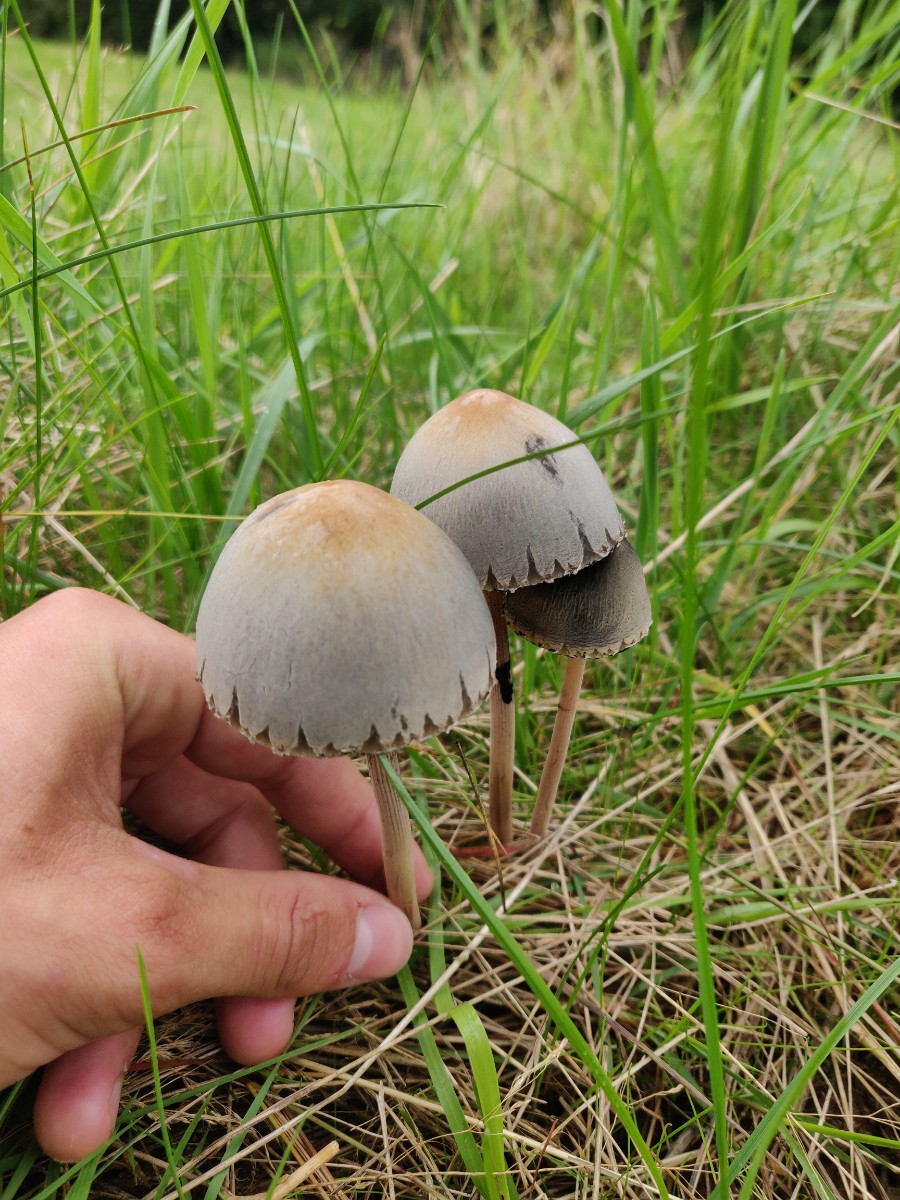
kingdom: Fungi
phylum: Basidiomycota
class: Agaricomycetes
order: Agaricales
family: Bolbitiaceae
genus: Panaeolus
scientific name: Panaeolus papilionaceus
